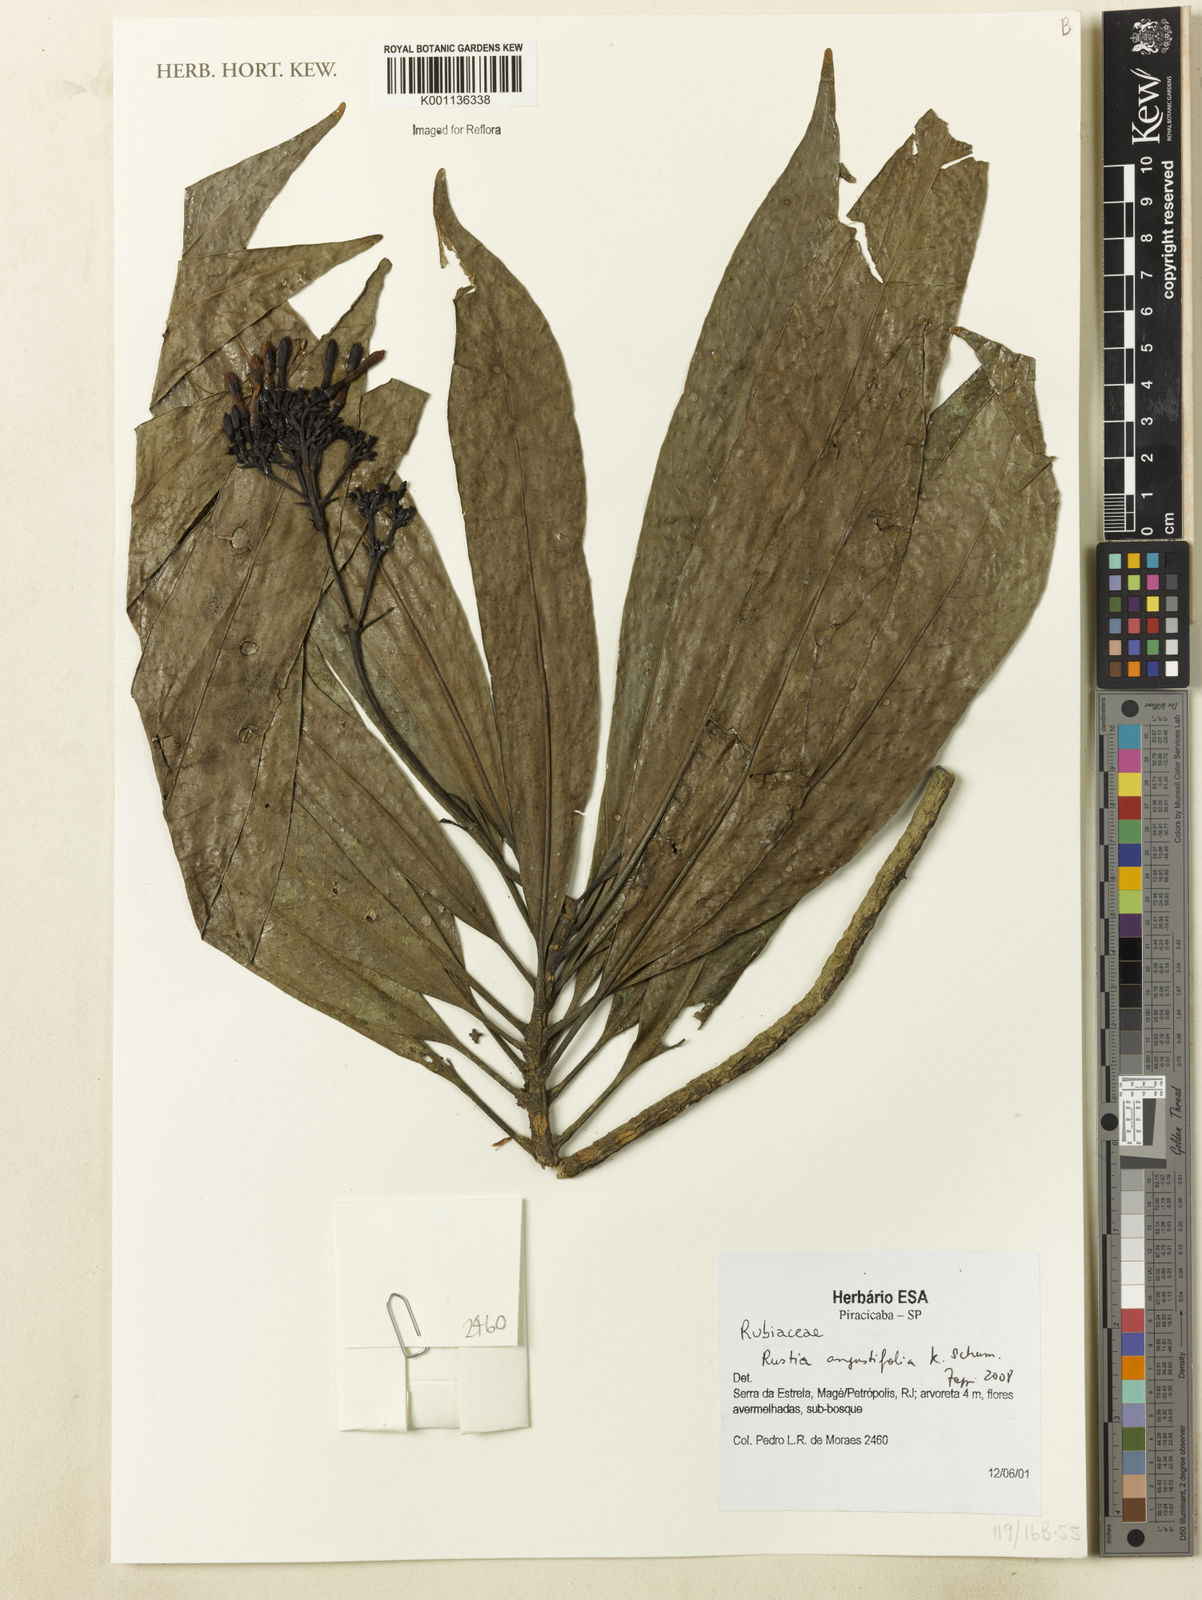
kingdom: Plantae
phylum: Tracheophyta
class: Magnoliopsida
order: Gentianales
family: Rubiaceae
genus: Rustia
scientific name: Rustia angustifolia
